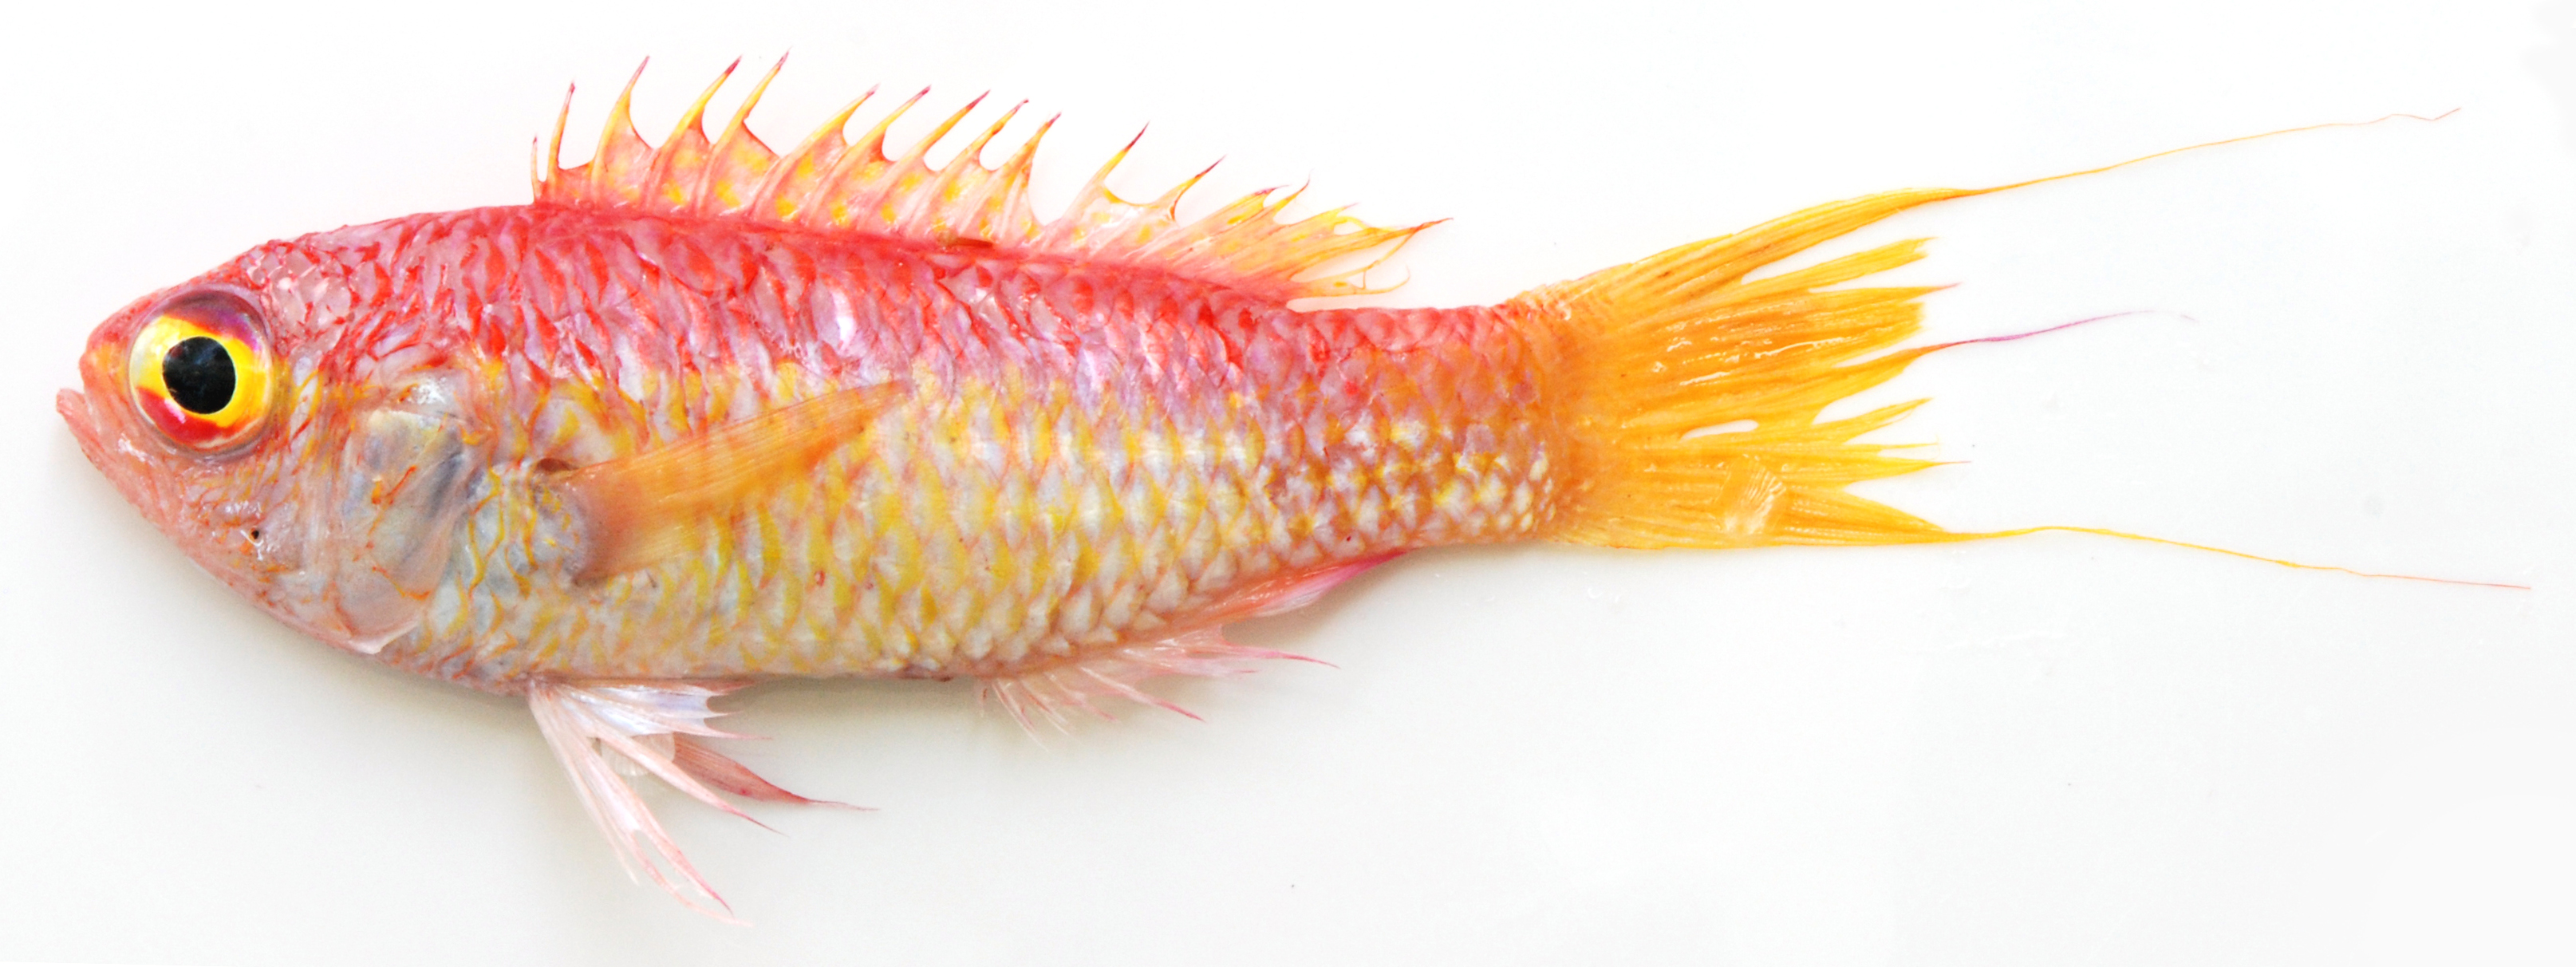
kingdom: Animalia
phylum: Chordata
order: Perciformes
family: Callanthiidae
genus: Grammatonotus
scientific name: Grammatonotus
